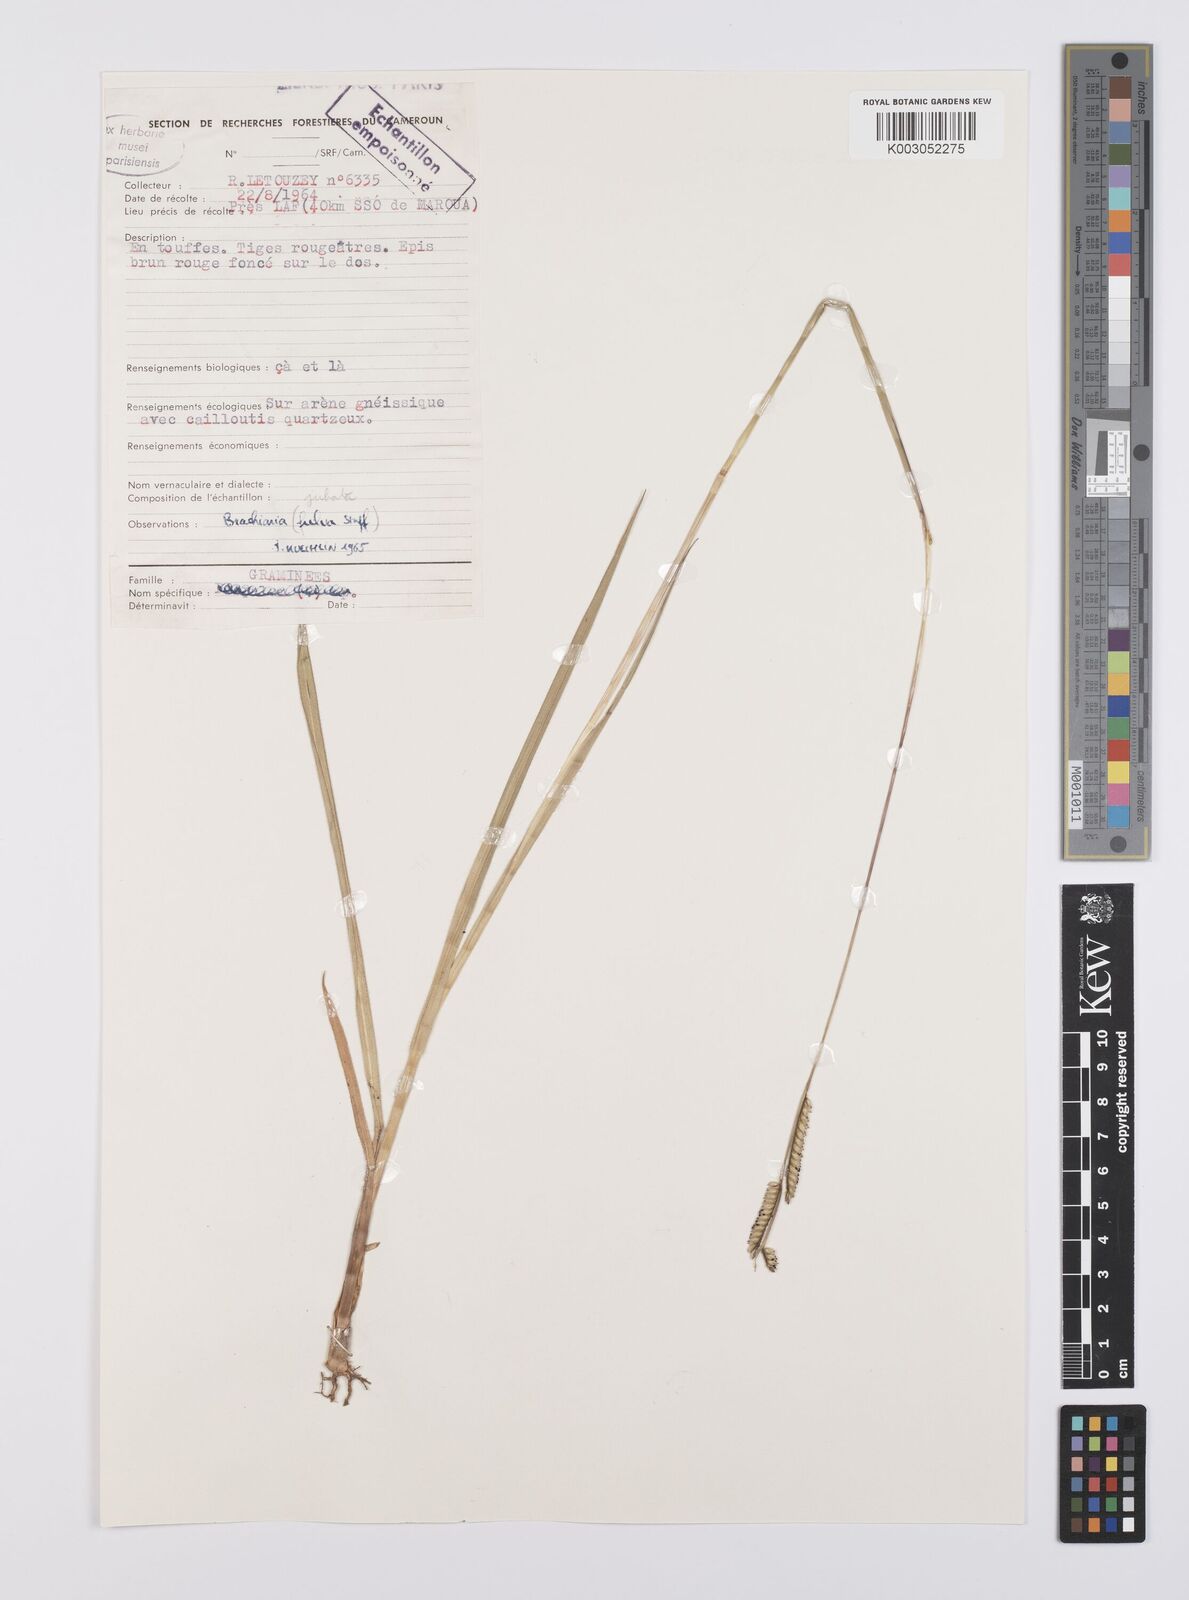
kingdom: Plantae
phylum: Tracheophyta
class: Liliopsida
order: Poales
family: Poaceae
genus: Urochloa
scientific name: Urochloa jubata
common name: Buffalograss
